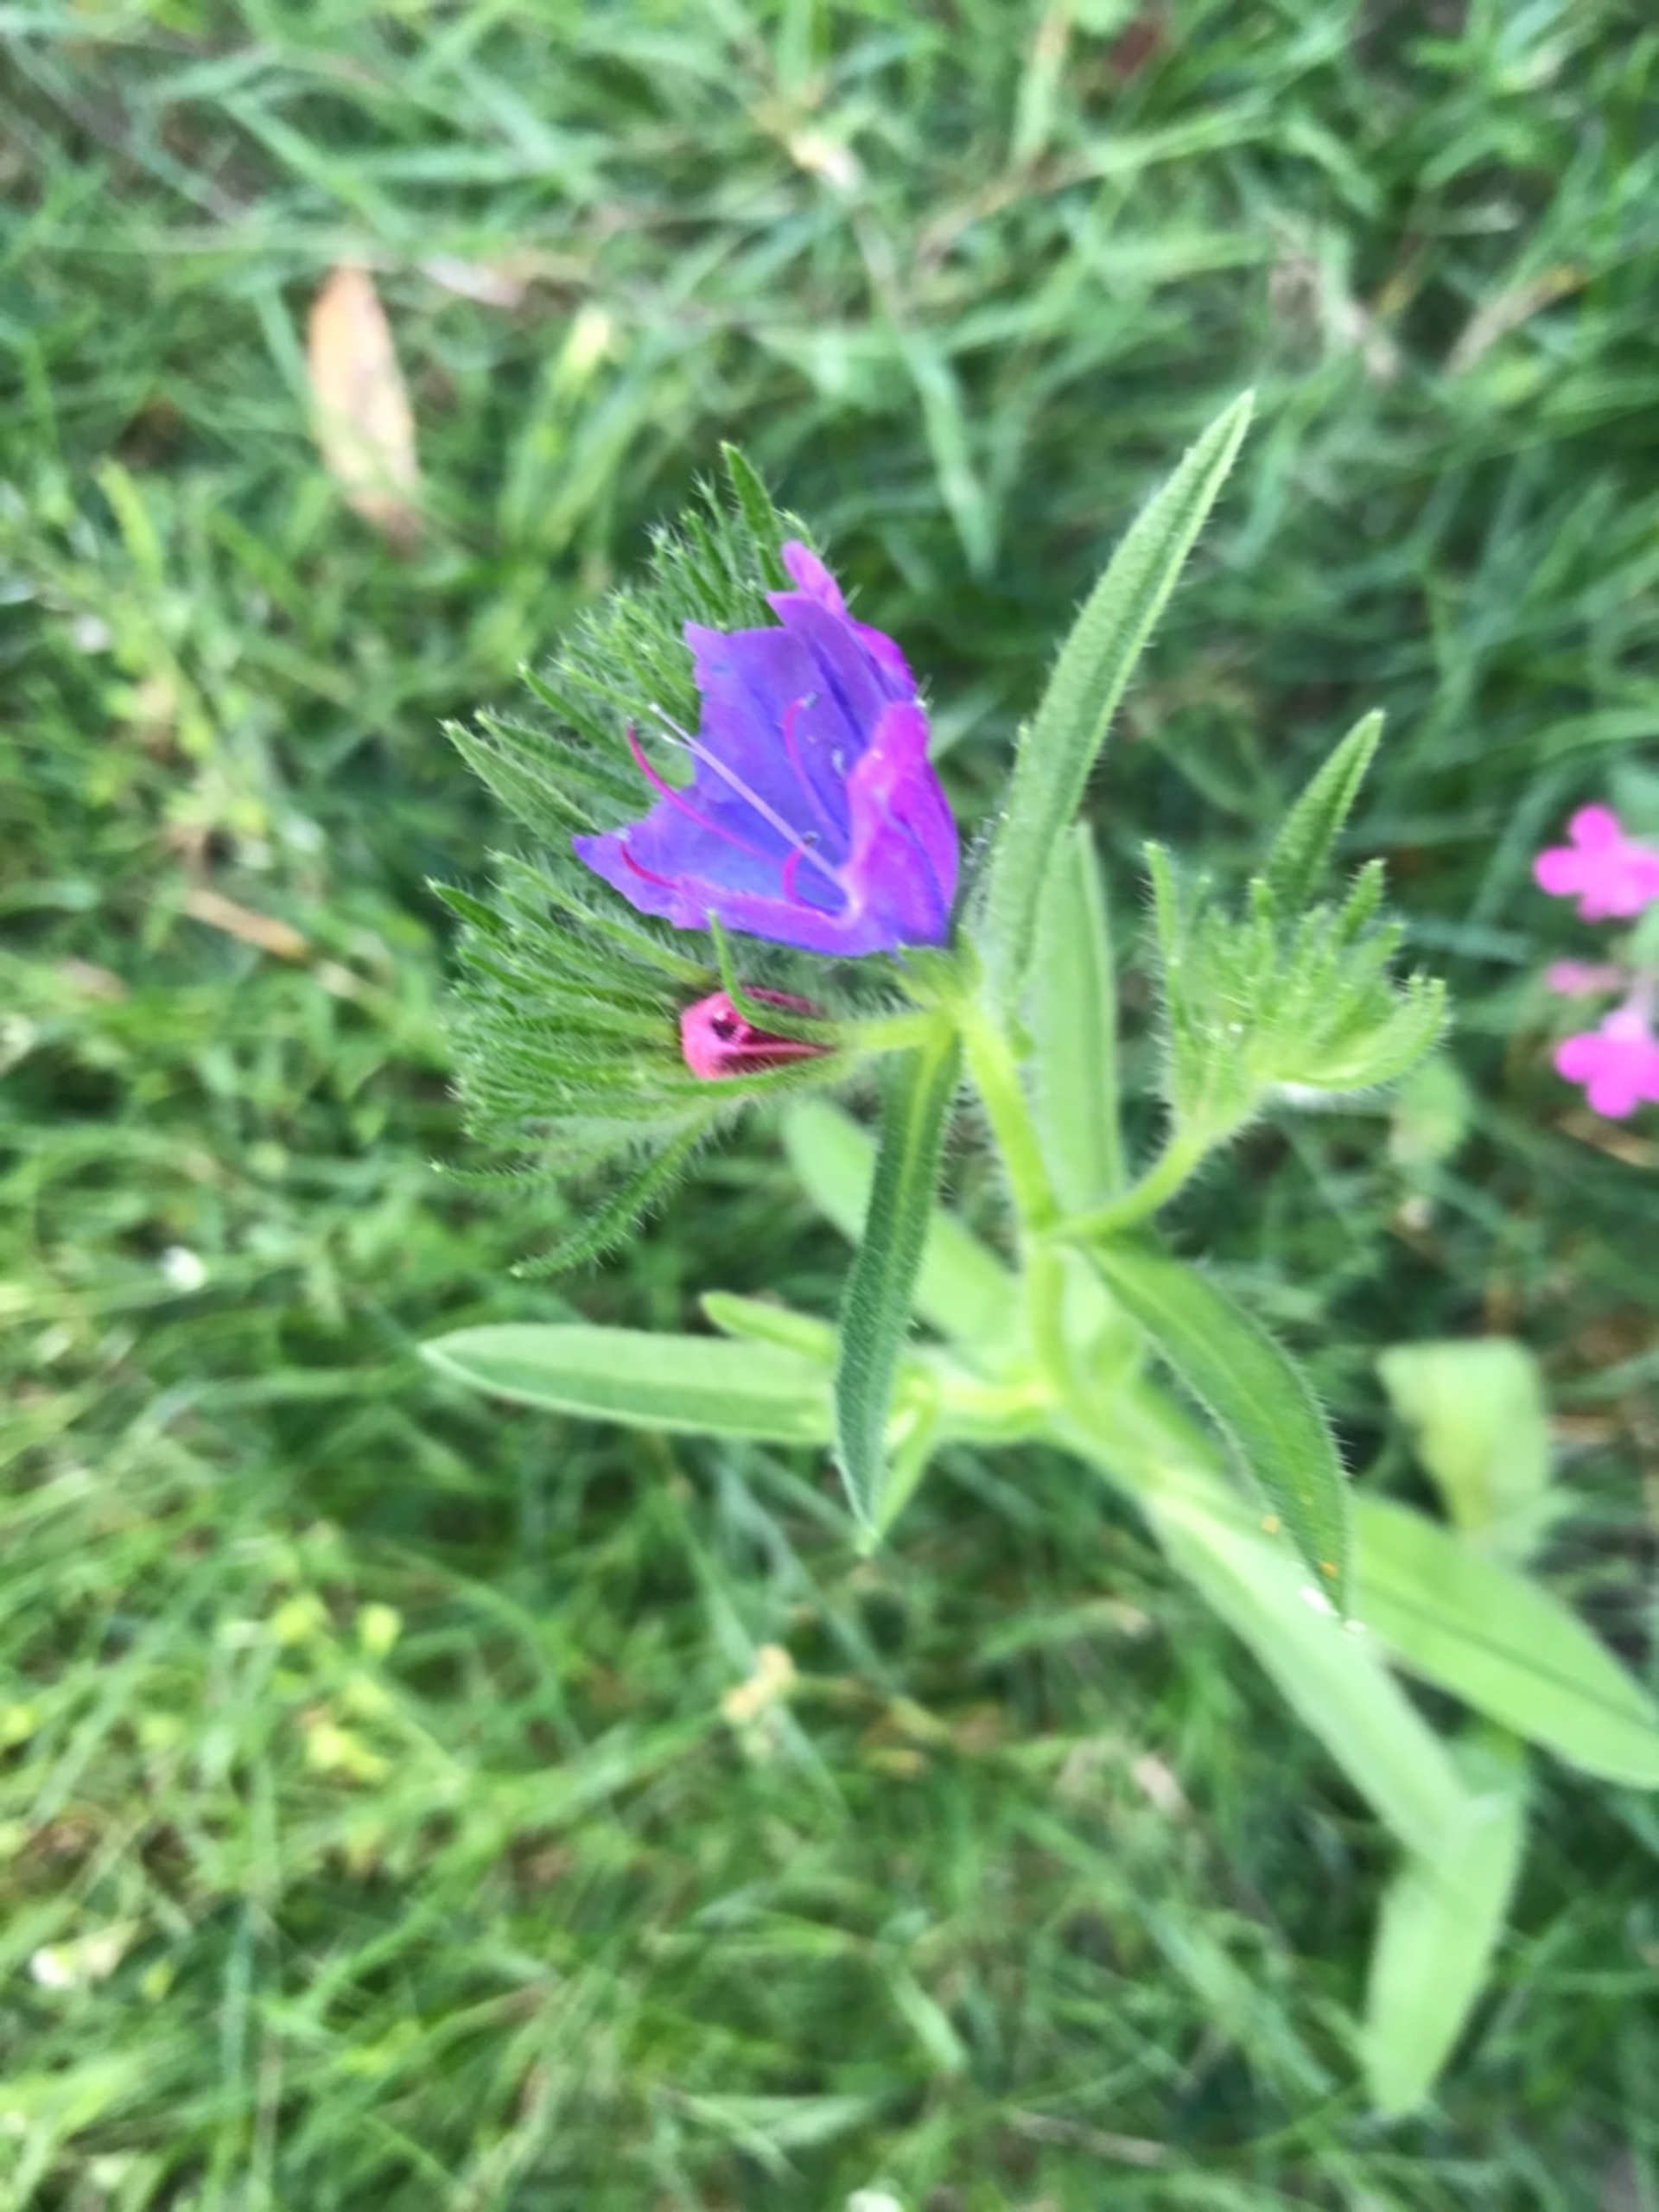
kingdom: Plantae
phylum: Tracheophyta
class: Magnoliopsida
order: Boraginales
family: Boraginaceae
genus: Echium
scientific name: Echium plantagineum
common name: Vejbred-slangehoved
